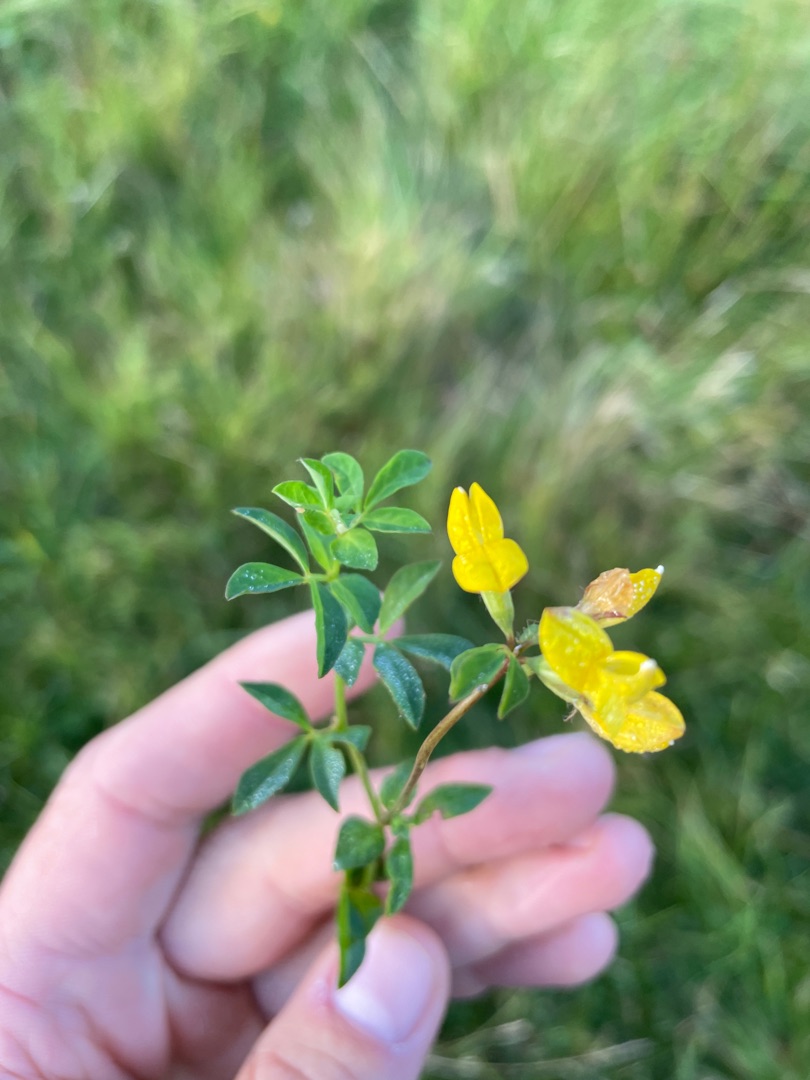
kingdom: Plantae
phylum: Tracheophyta
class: Magnoliopsida
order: Fabales
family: Fabaceae
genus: Lotus
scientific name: Lotus corniculatus
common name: Almindelig kællingetand
